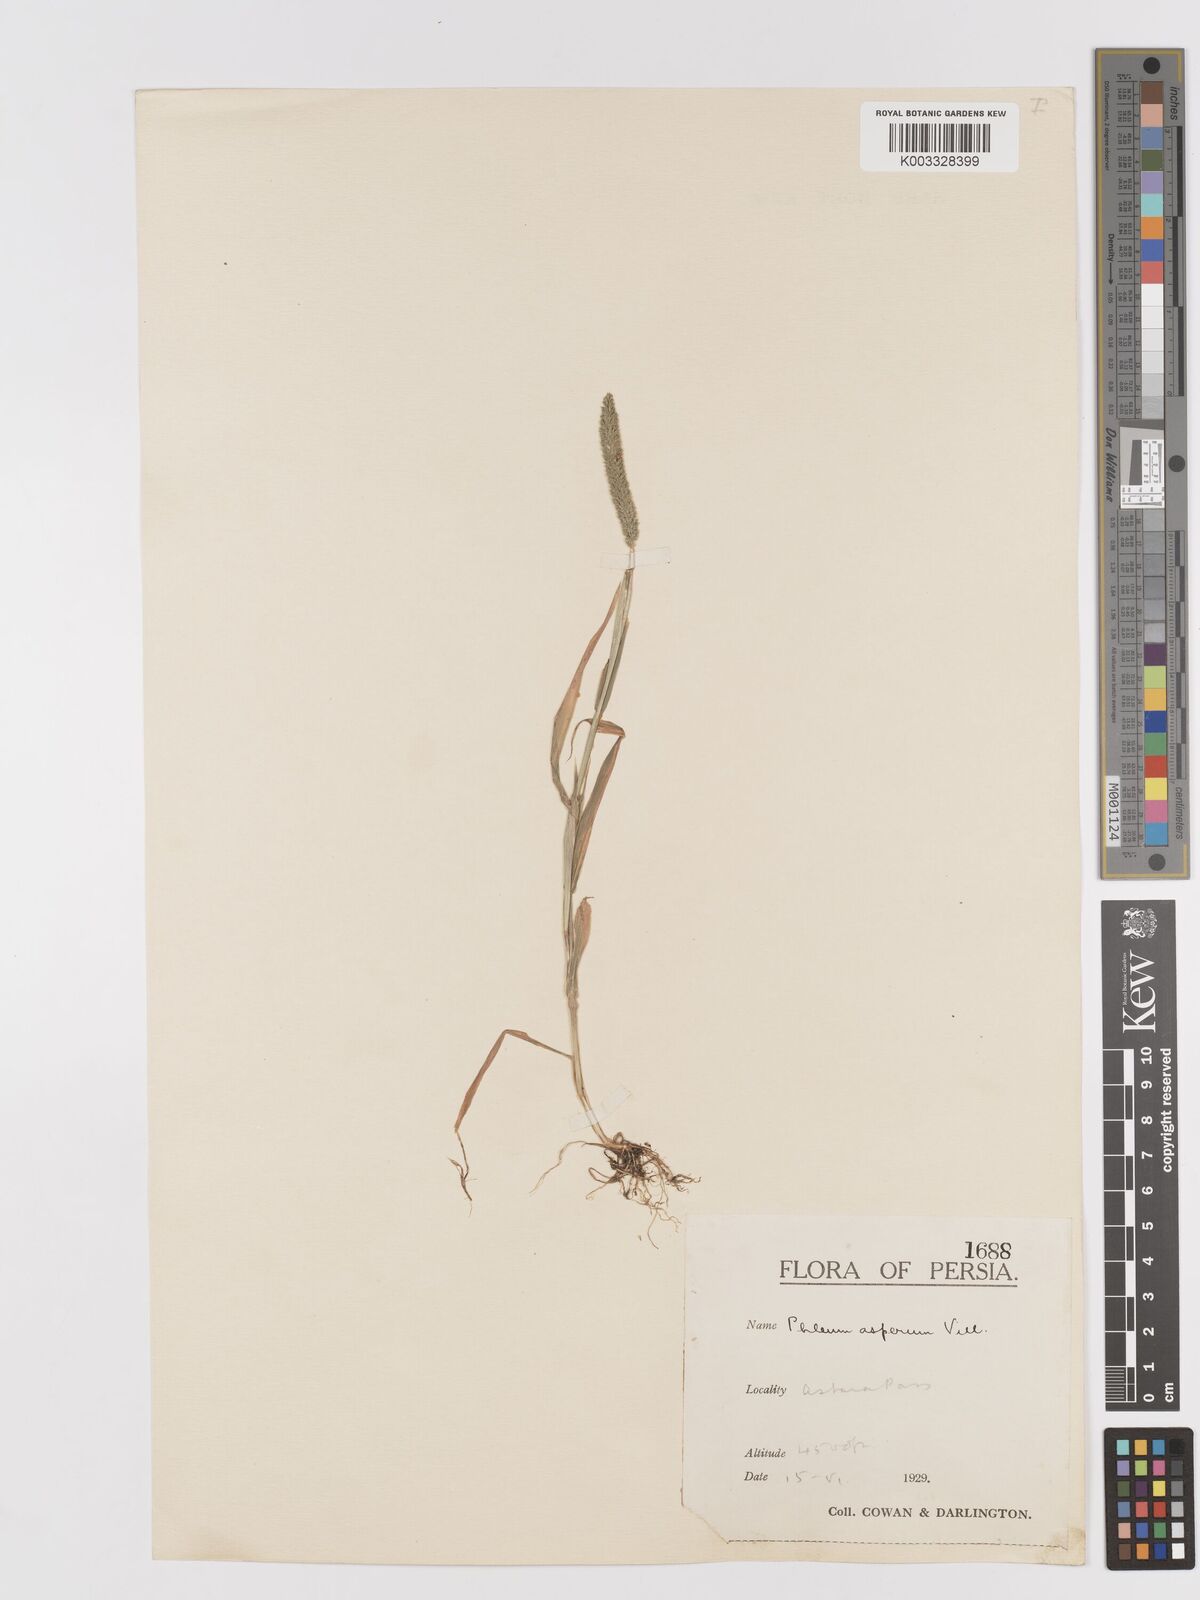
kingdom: Plantae
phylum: Tracheophyta
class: Liliopsida
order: Poales
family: Poaceae
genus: Phleum
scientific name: Phleum paniculatum
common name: British timothy
